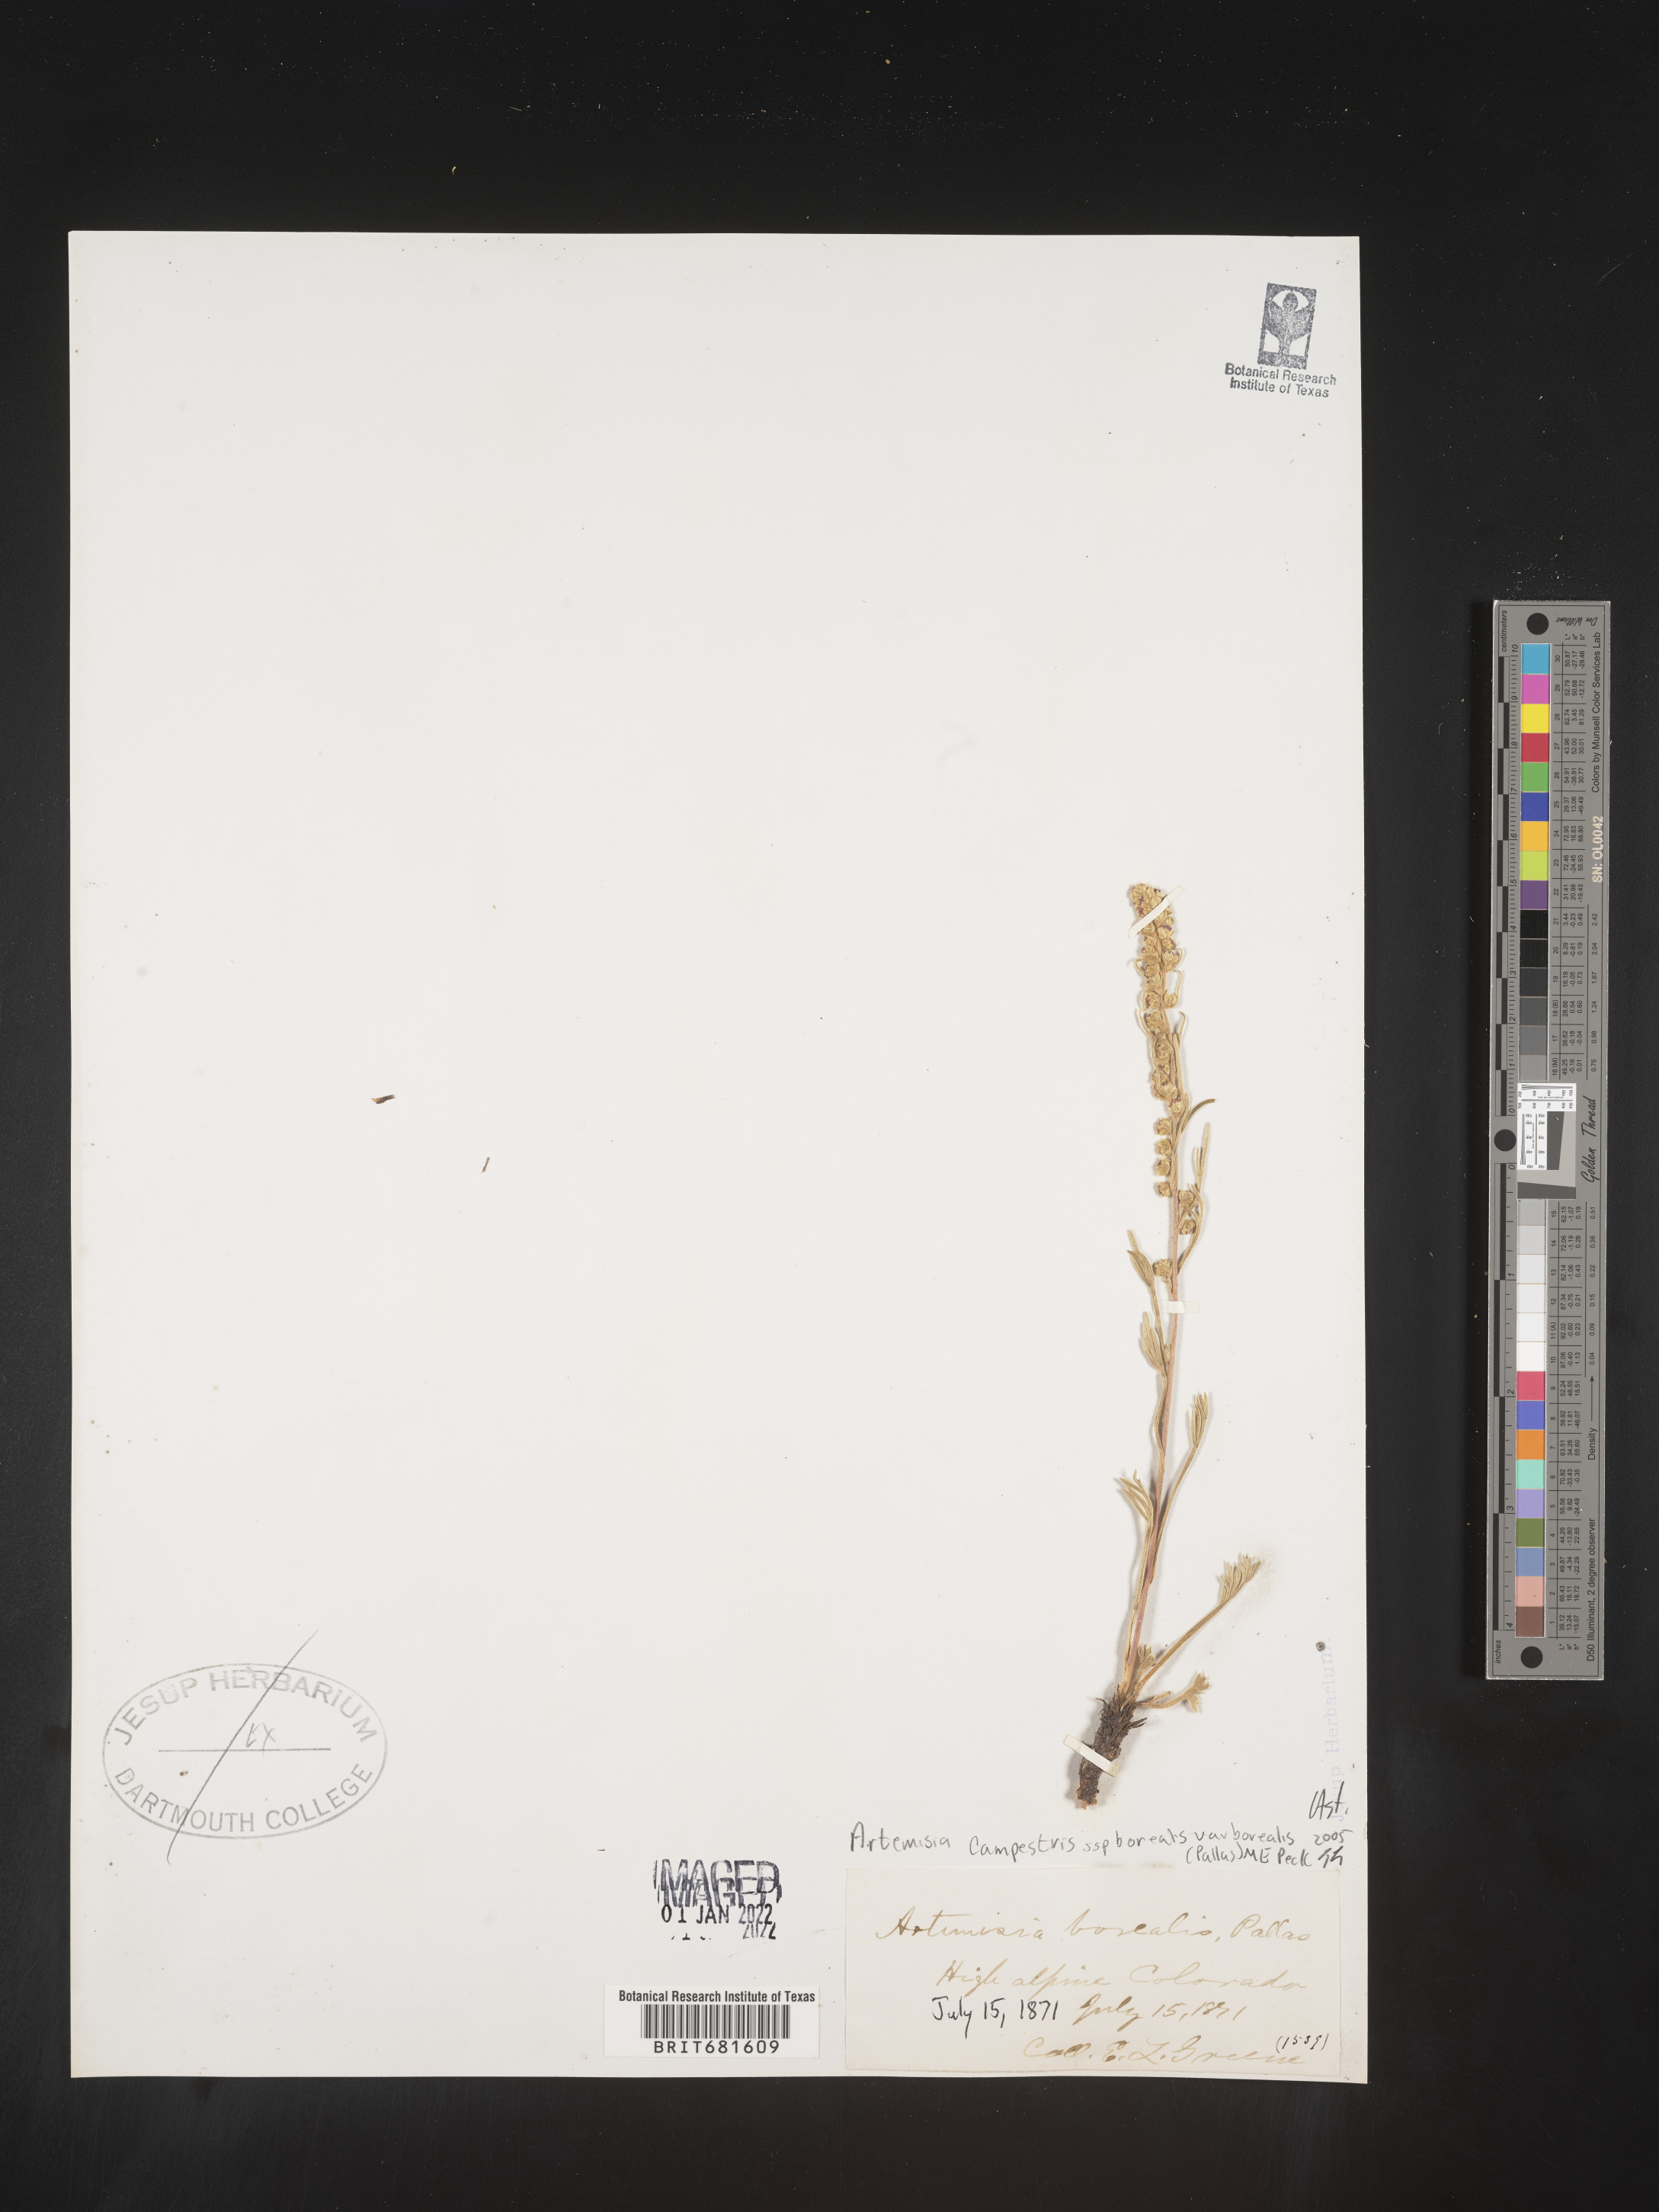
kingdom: Plantae
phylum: Tracheophyta
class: Magnoliopsida
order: Asterales
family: Asteraceae
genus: Artemisia
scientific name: Artemisia campestris
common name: Field wormwood
